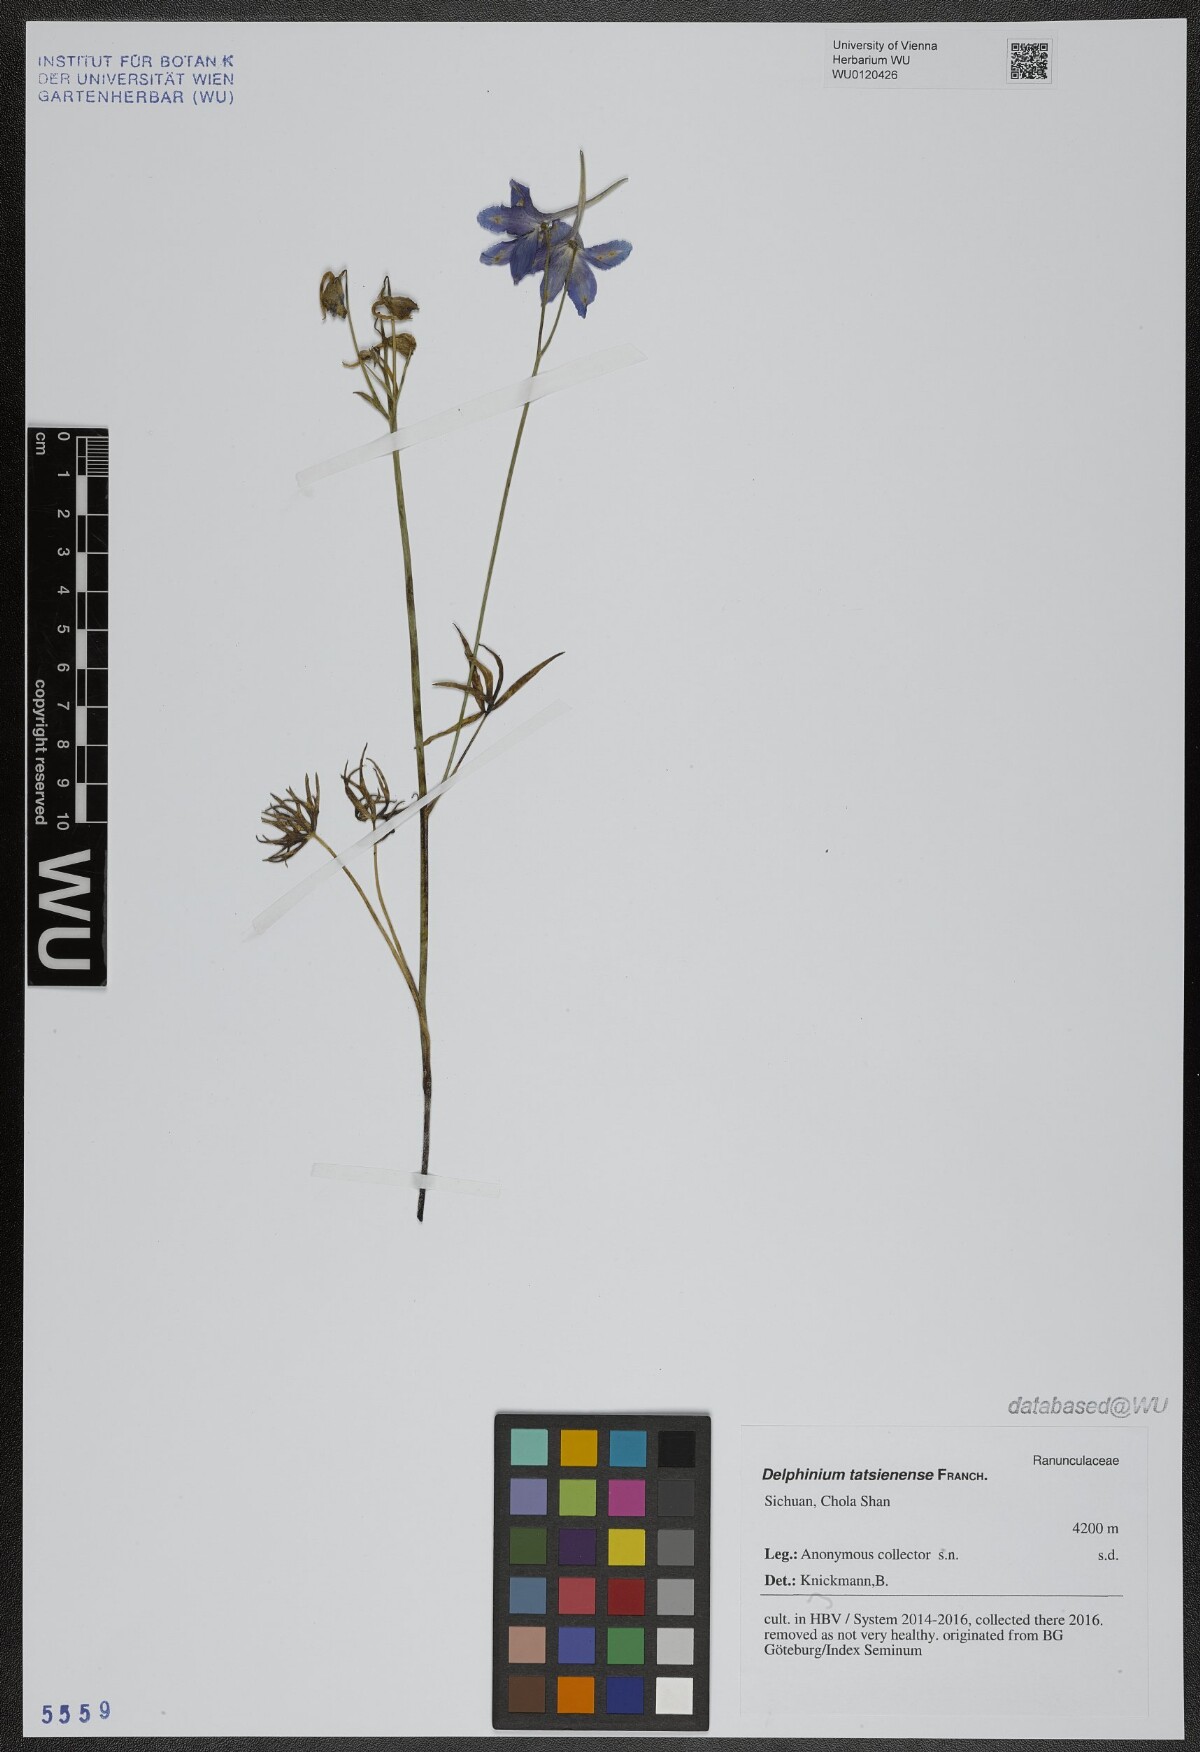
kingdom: Plantae
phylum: Tracheophyta
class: Magnoliopsida
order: Ranunculales
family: Ranunculaceae
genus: Delphinium
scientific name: Delphinium tatsienense
